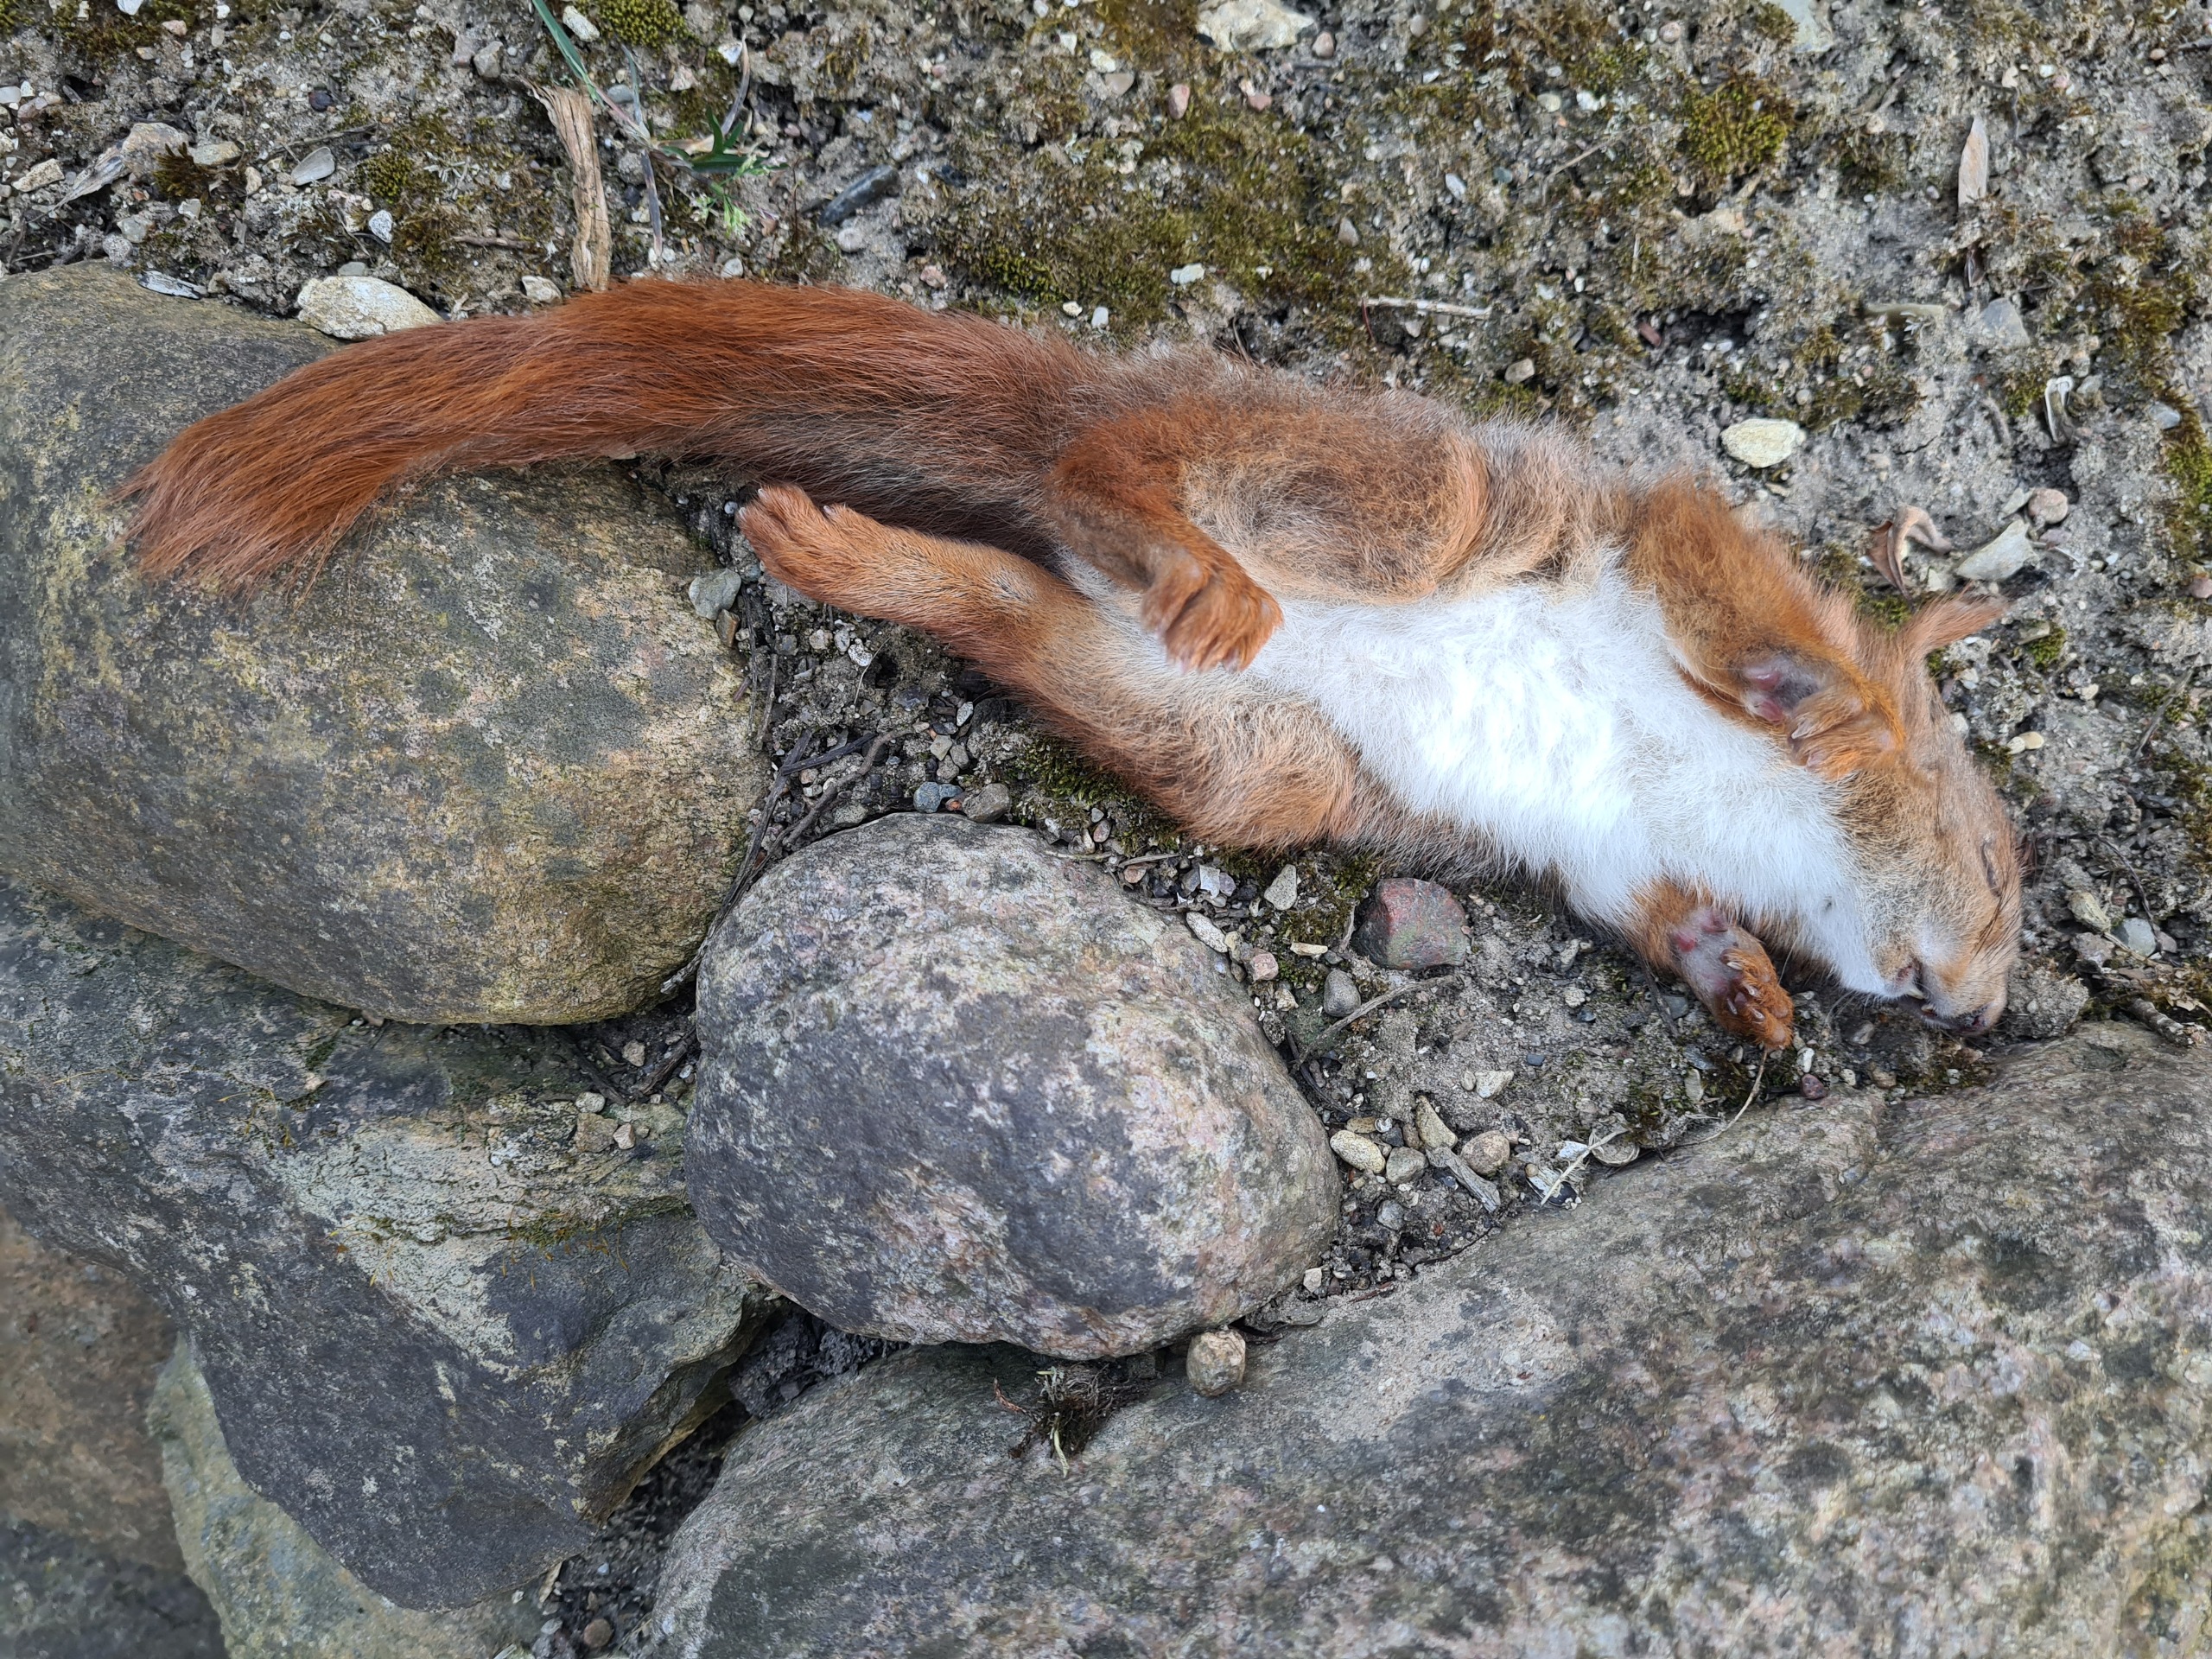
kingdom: Animalia
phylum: Chordata
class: Mammalia
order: Rodentia
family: Sciuridae
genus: Sciurus
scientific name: Sciurus vulgaris
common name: Egern
